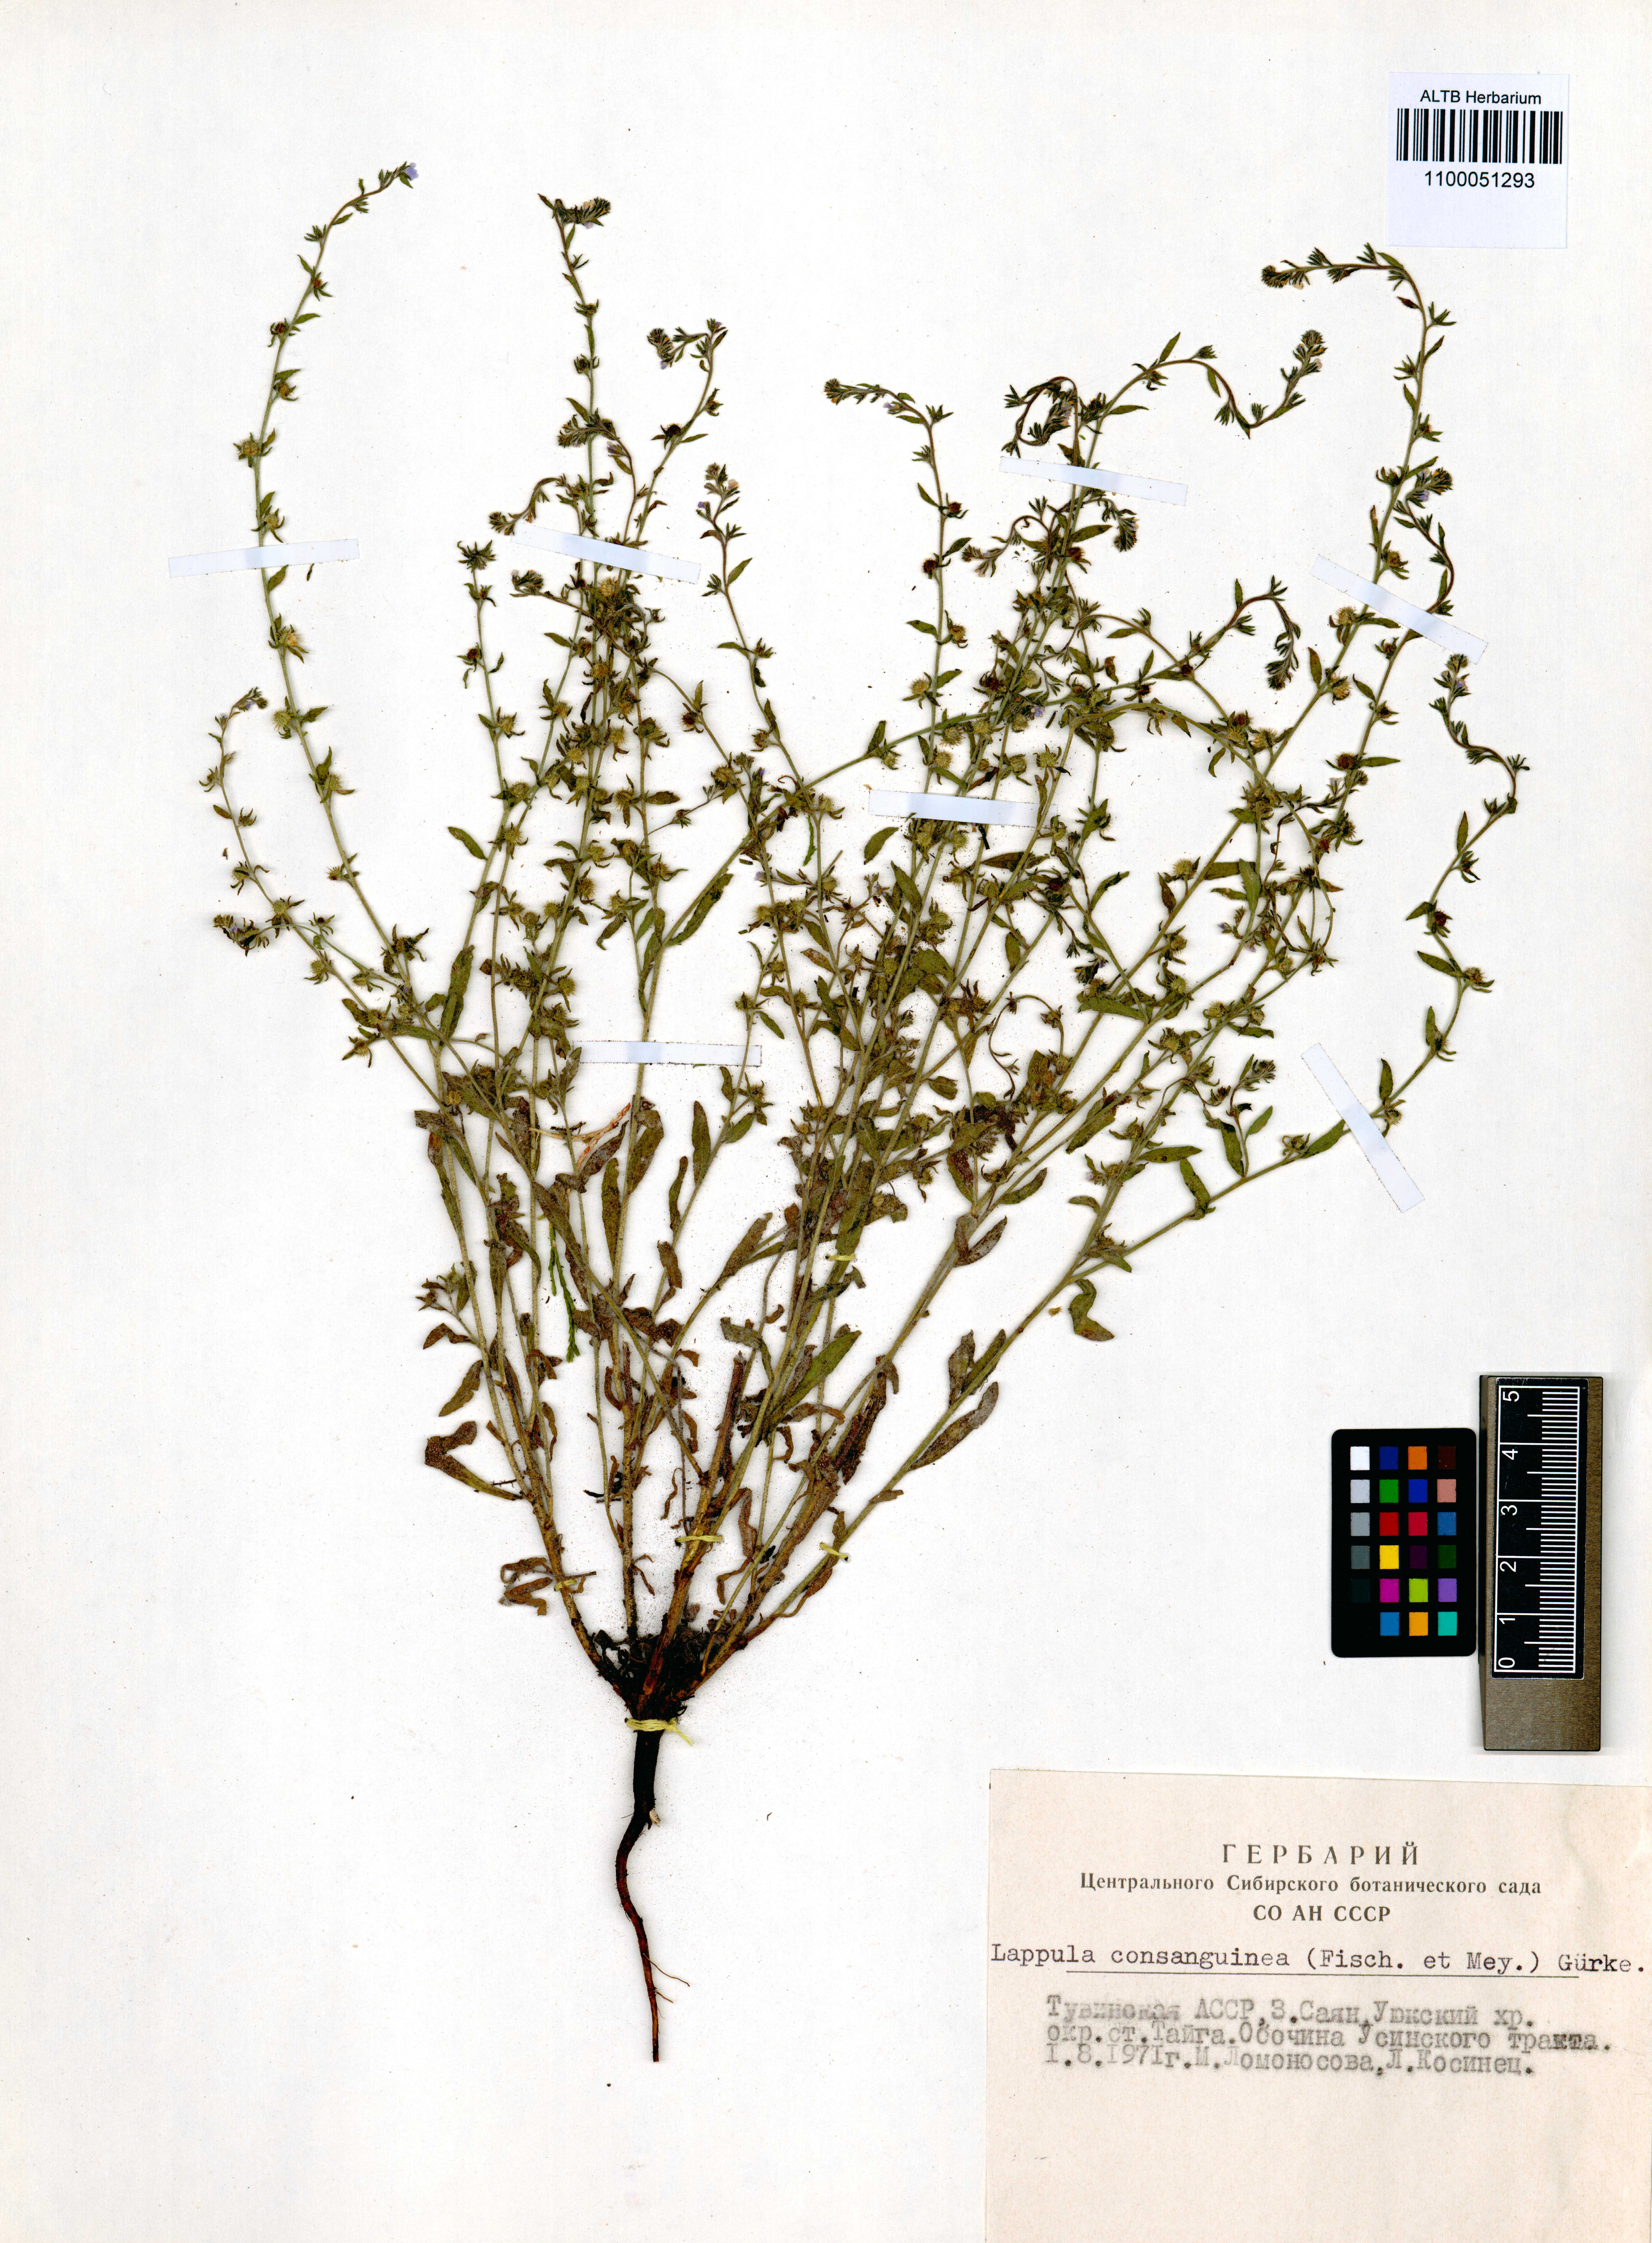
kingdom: Plantae
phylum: Tracheophyta
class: Magnoliopsida
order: Boraginales
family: Boraginaceae
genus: Lappula
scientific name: Lappula squarrosa
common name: European stickseed
